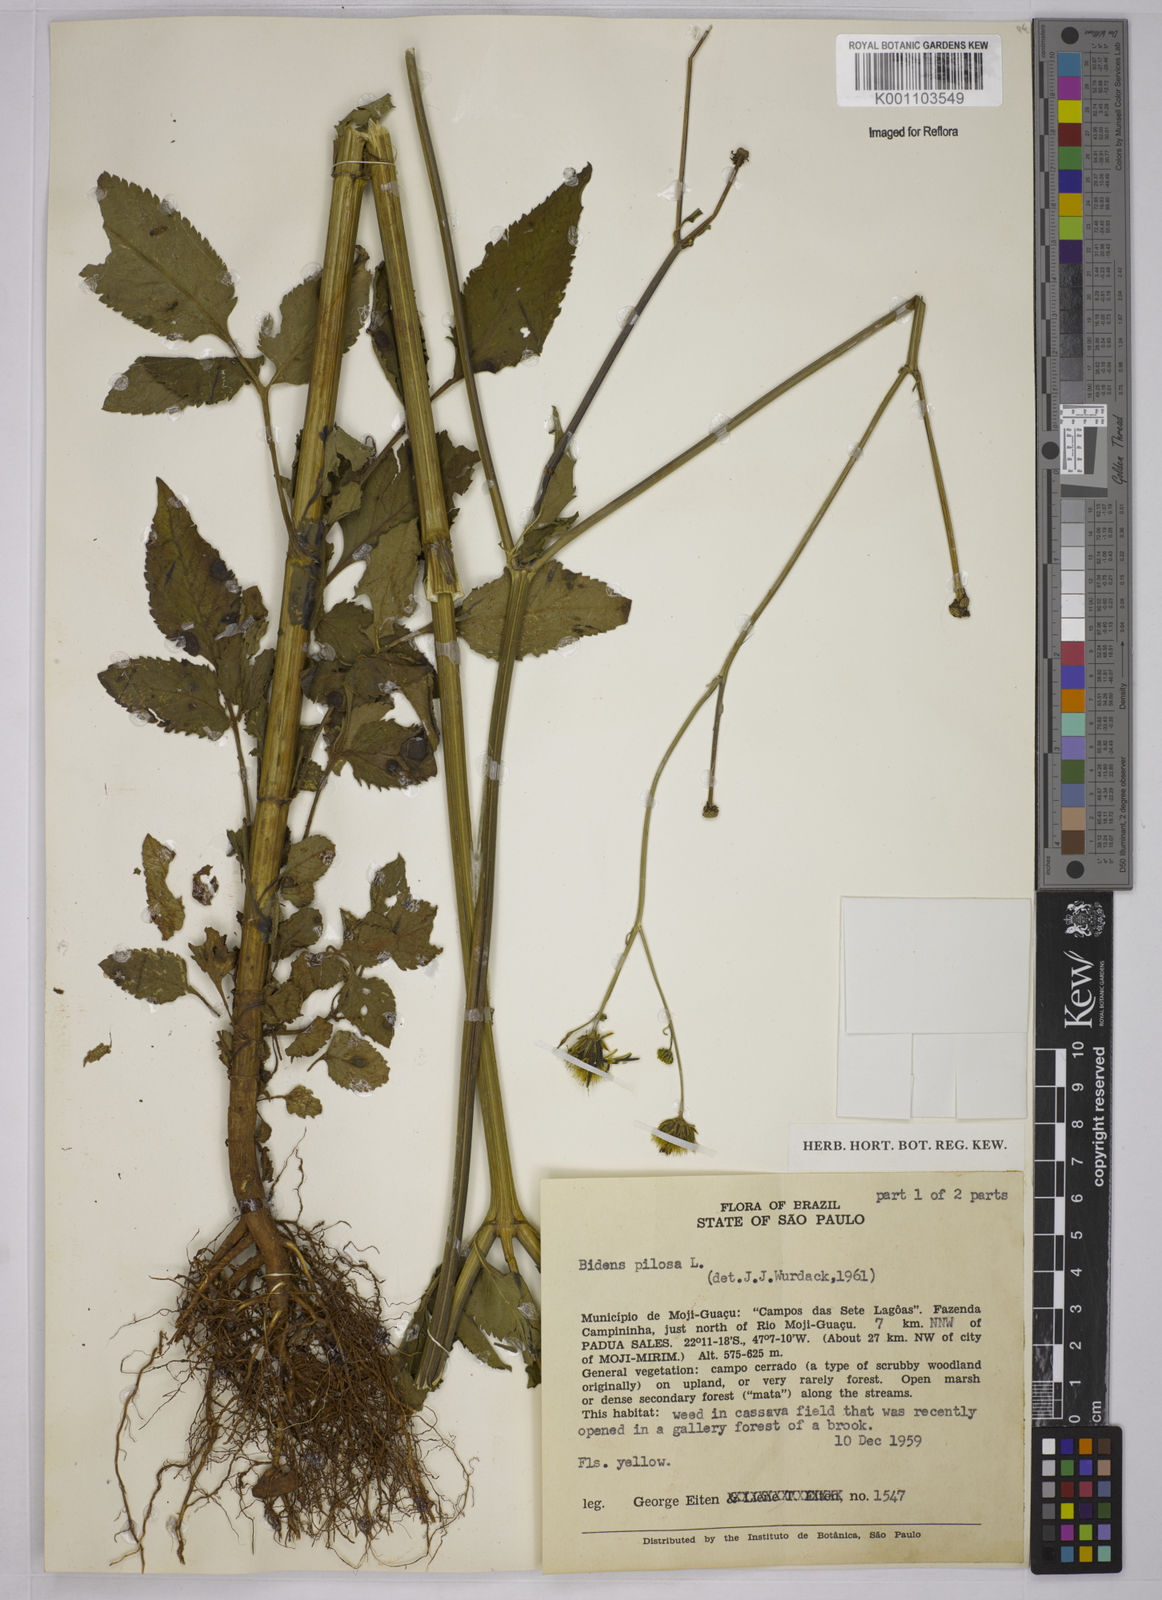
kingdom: Plantae
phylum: Tracheophyta
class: Magnoliopsida
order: Asterales
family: Asteraceae
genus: Bidens
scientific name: Bidens pilosa
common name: Black-jack
